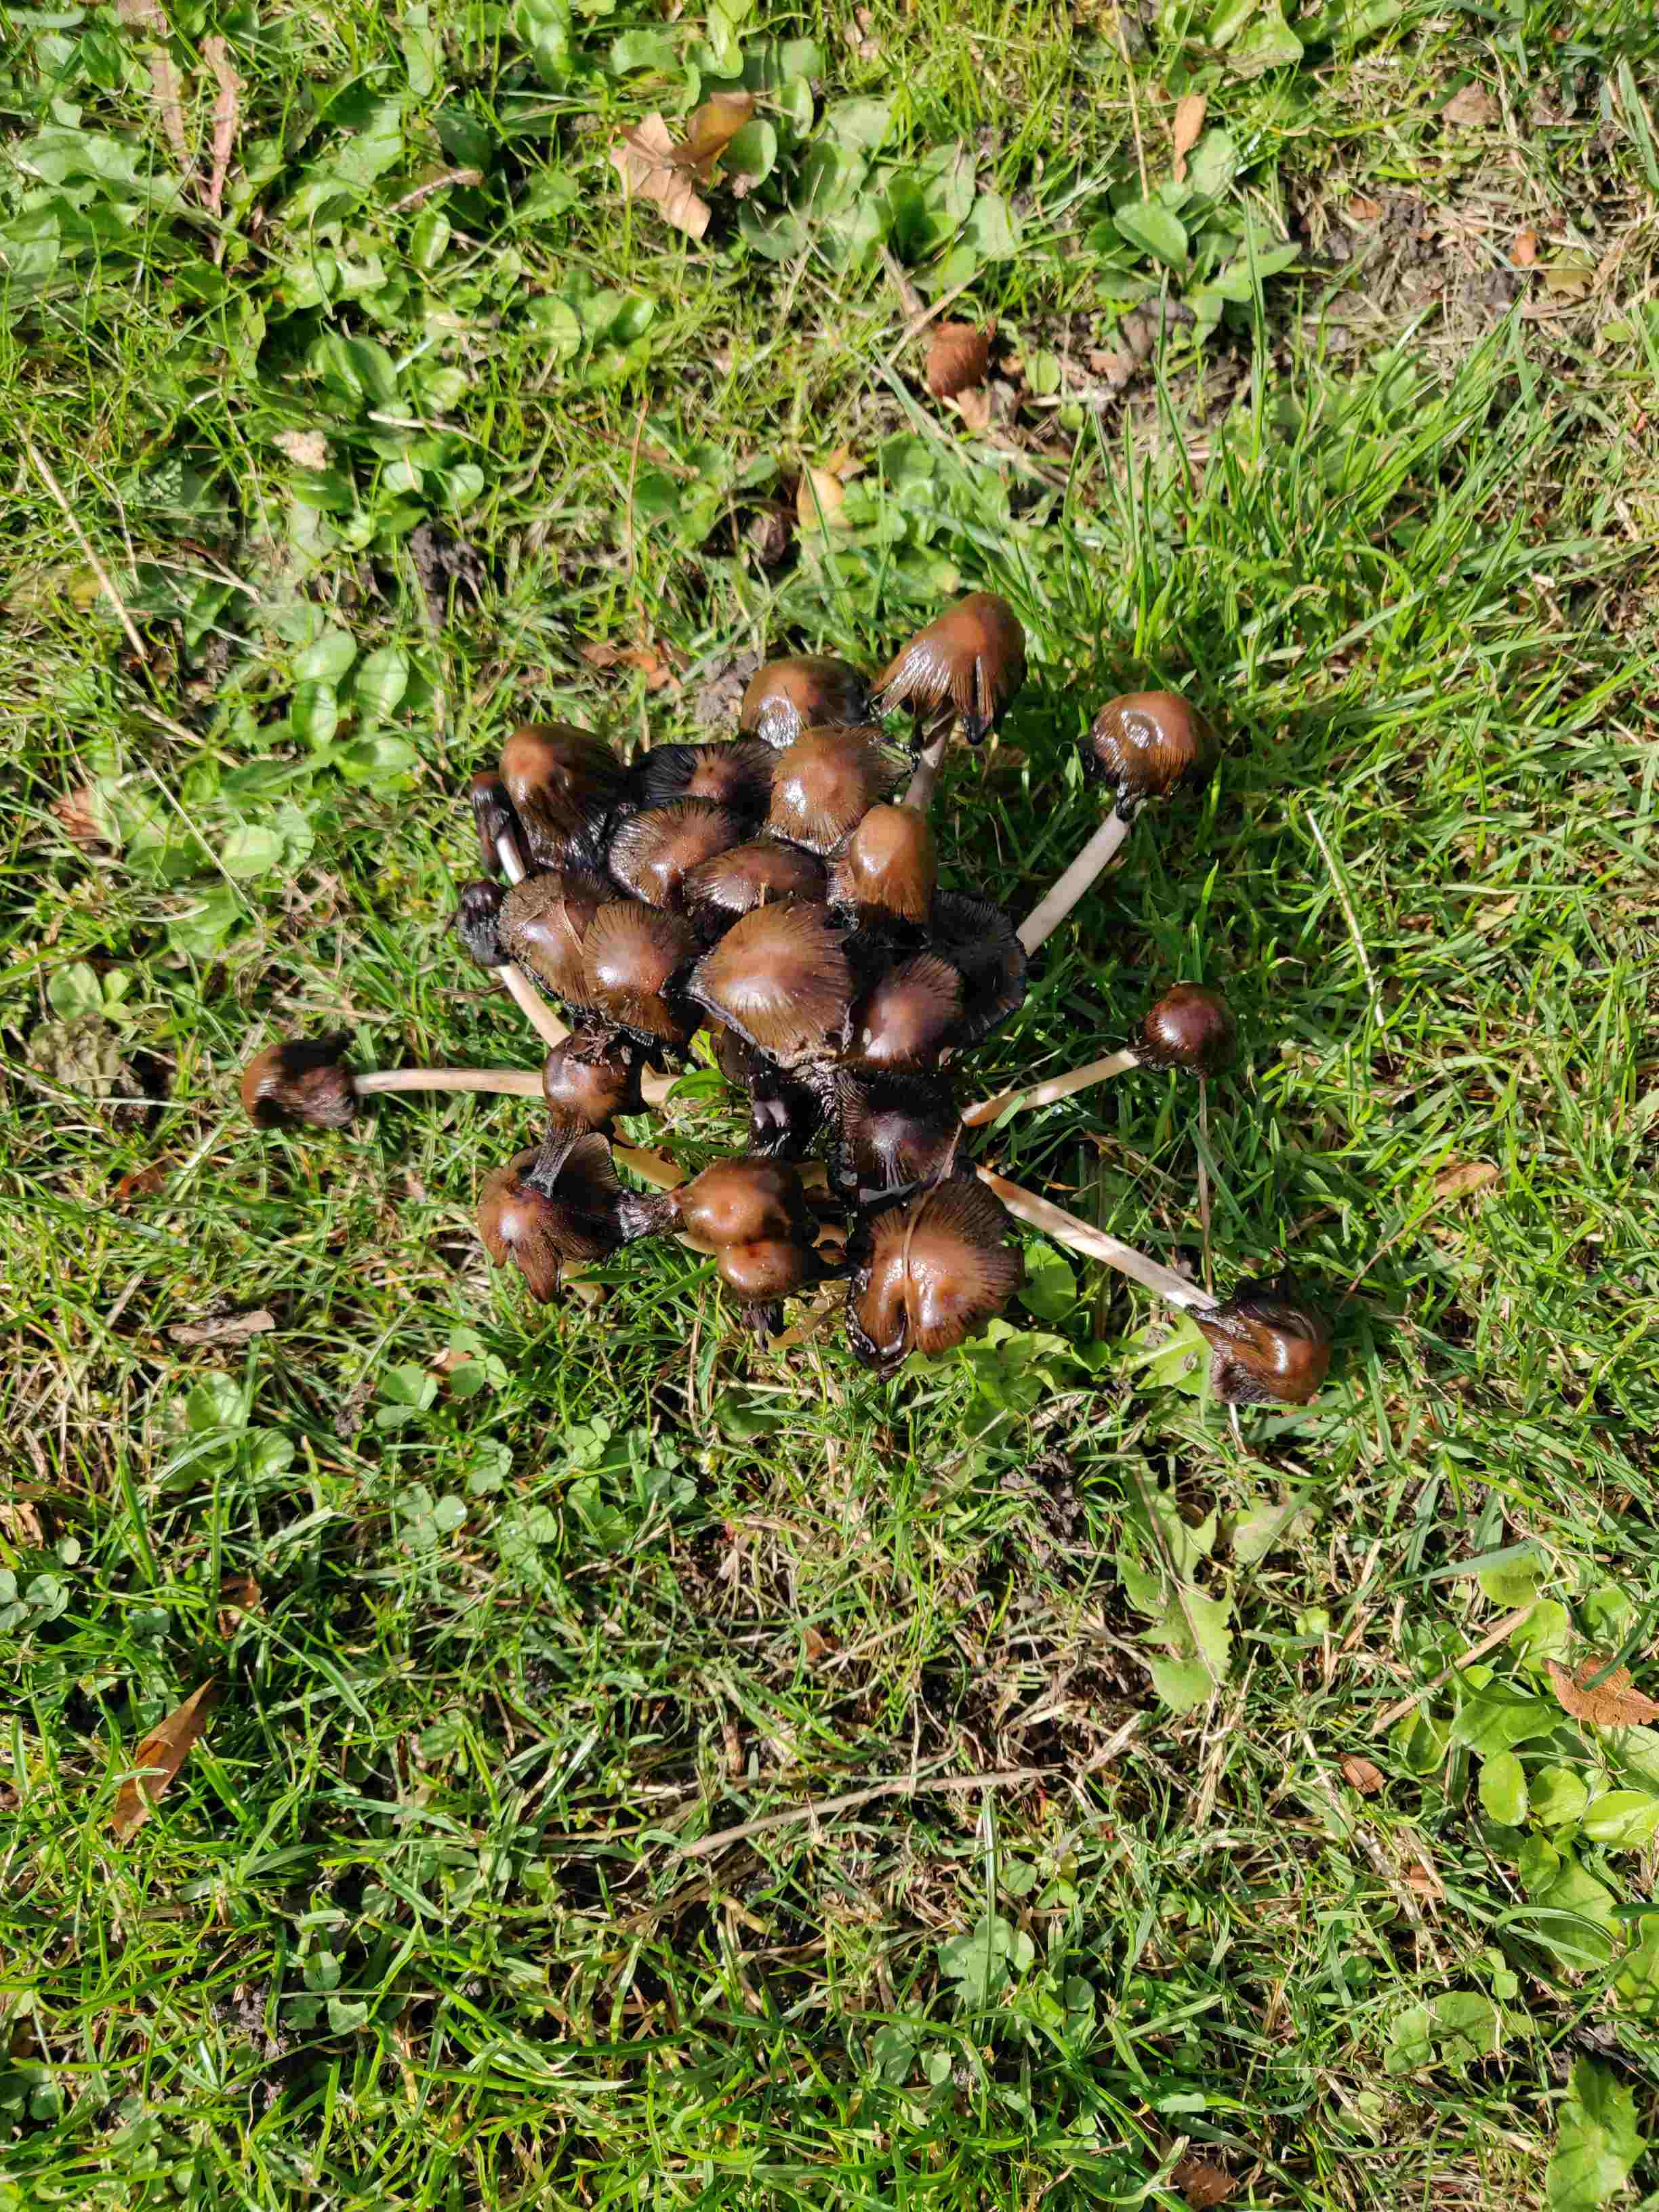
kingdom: Fungi
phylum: Basidiomycota
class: Agaricomycetes
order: Agaricales
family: Psathyrellaceae
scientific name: Psathyrellaceae
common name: mørkhatfamilien
